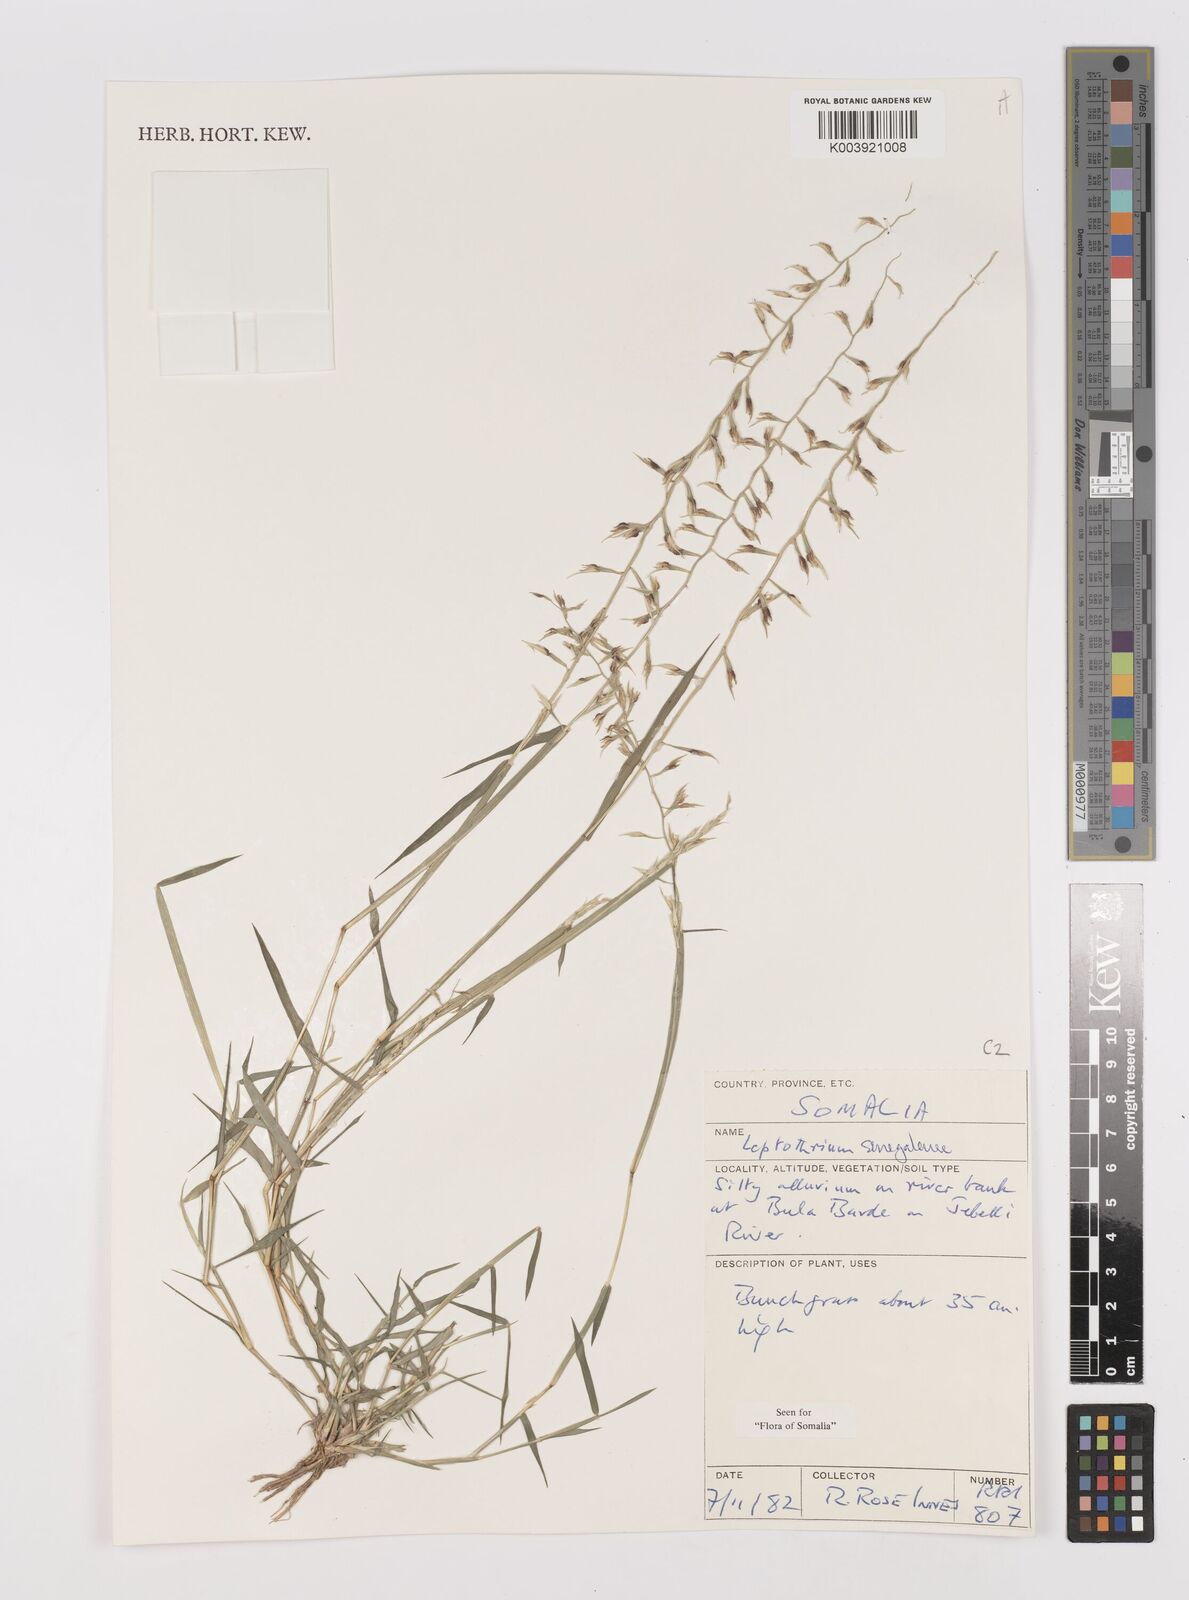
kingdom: Plantae
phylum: Tracheophyta
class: Liliopsida
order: Poales
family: Poaceae
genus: Leptothrium
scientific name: Leptothrium senegalense
